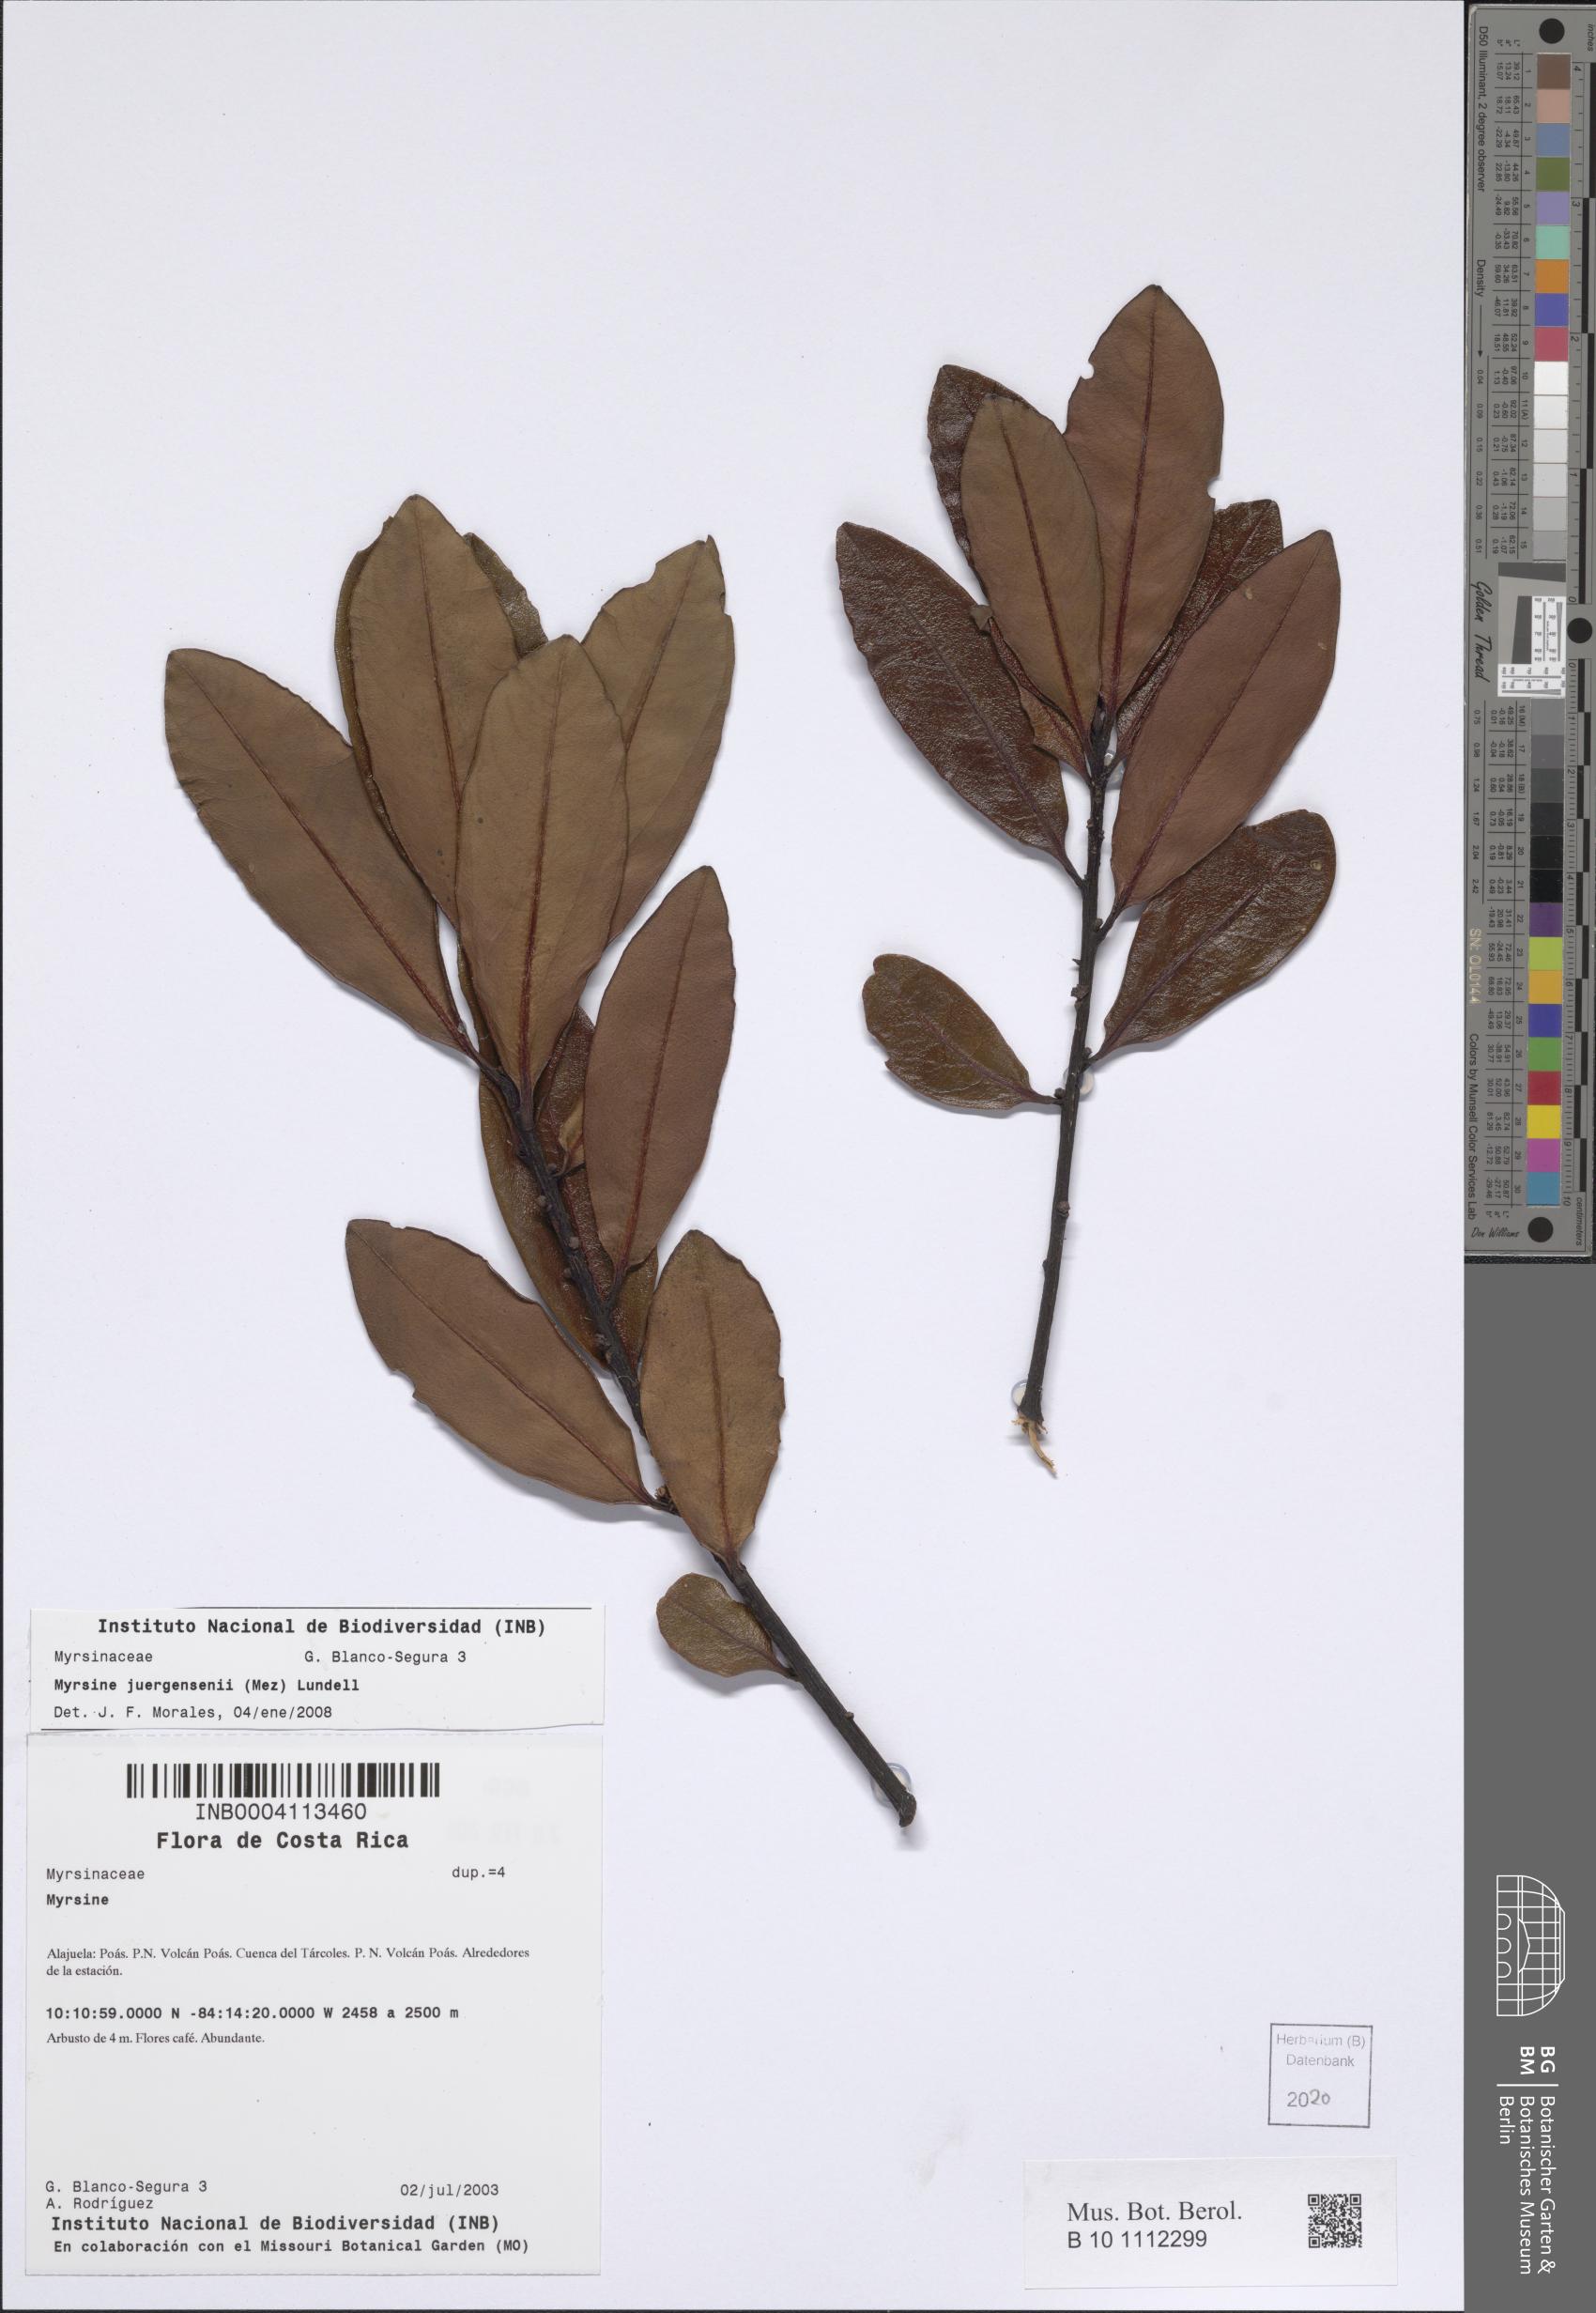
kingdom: Plantae
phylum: Tracheophyta
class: Magnoliopsida
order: Ericales
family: Primulaceae
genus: Myrsine
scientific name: Myrsine juergensenii
